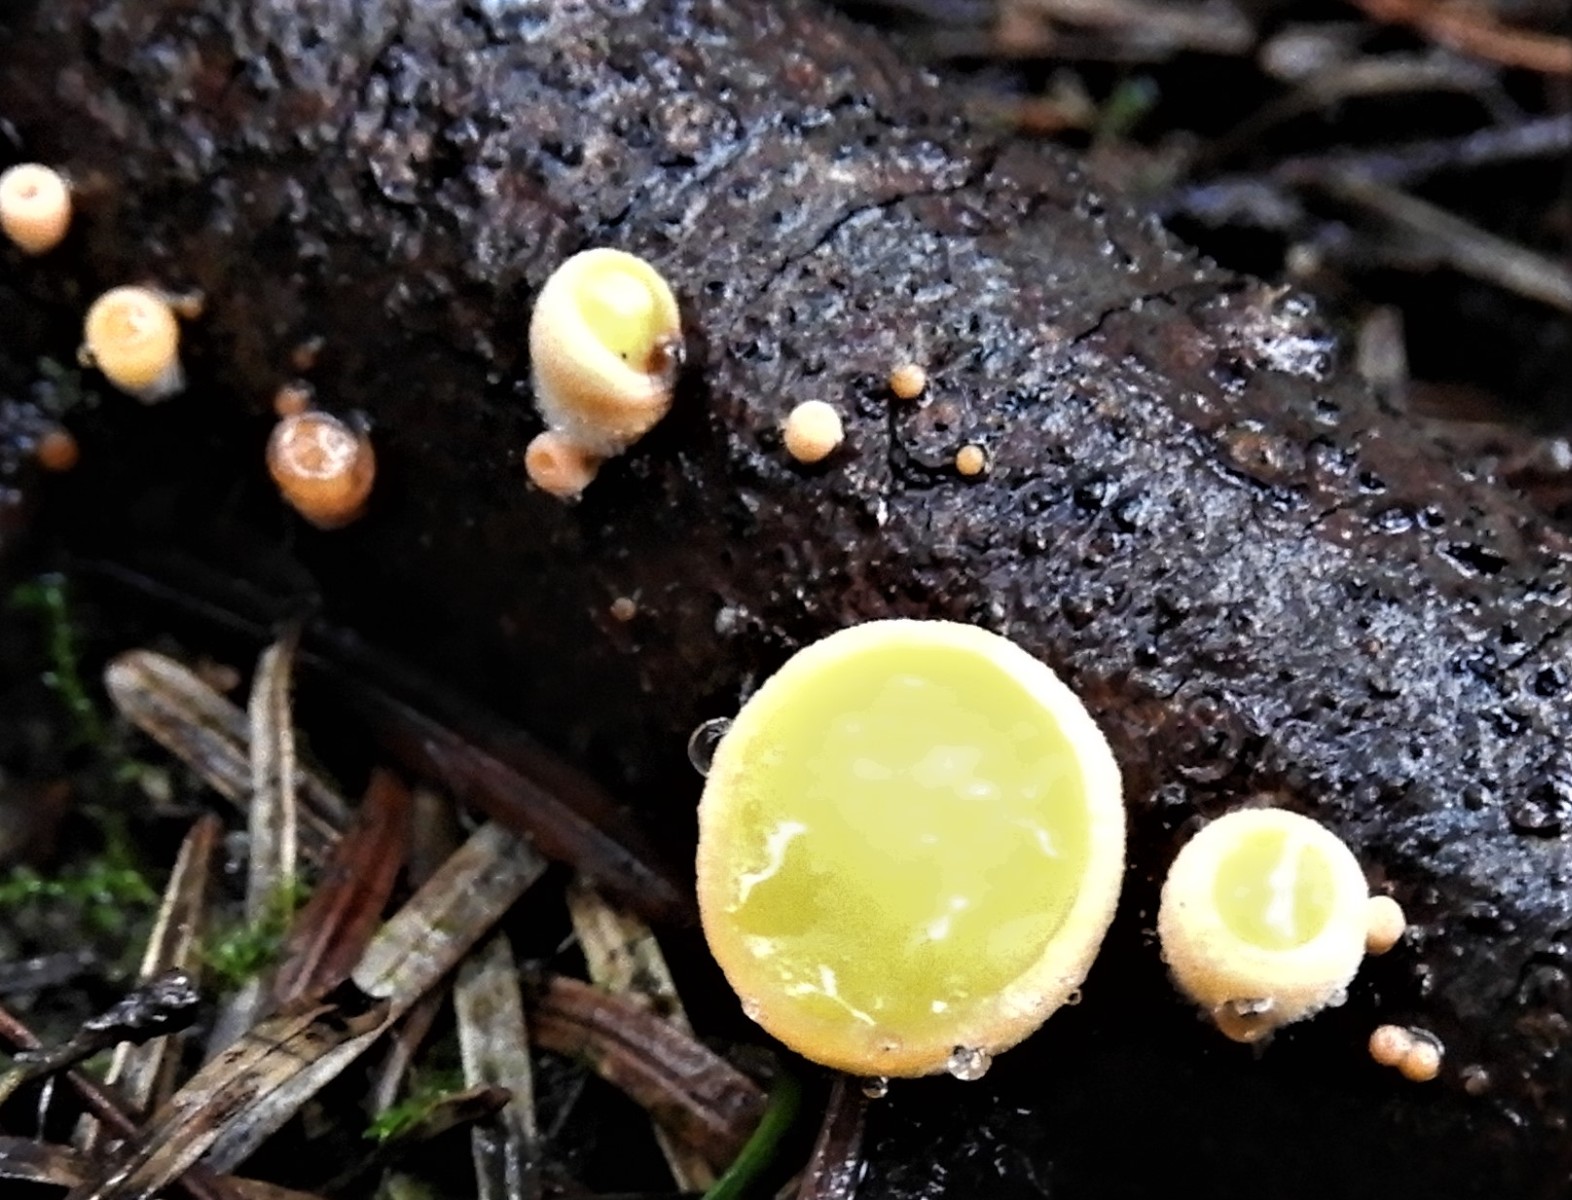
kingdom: Fungi
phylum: Ascomycota
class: Pezizomycetes
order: Pezizales
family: Sarcoscyphaceae
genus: Pithya
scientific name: Pithya vulgaris
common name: stor dukatbæger
